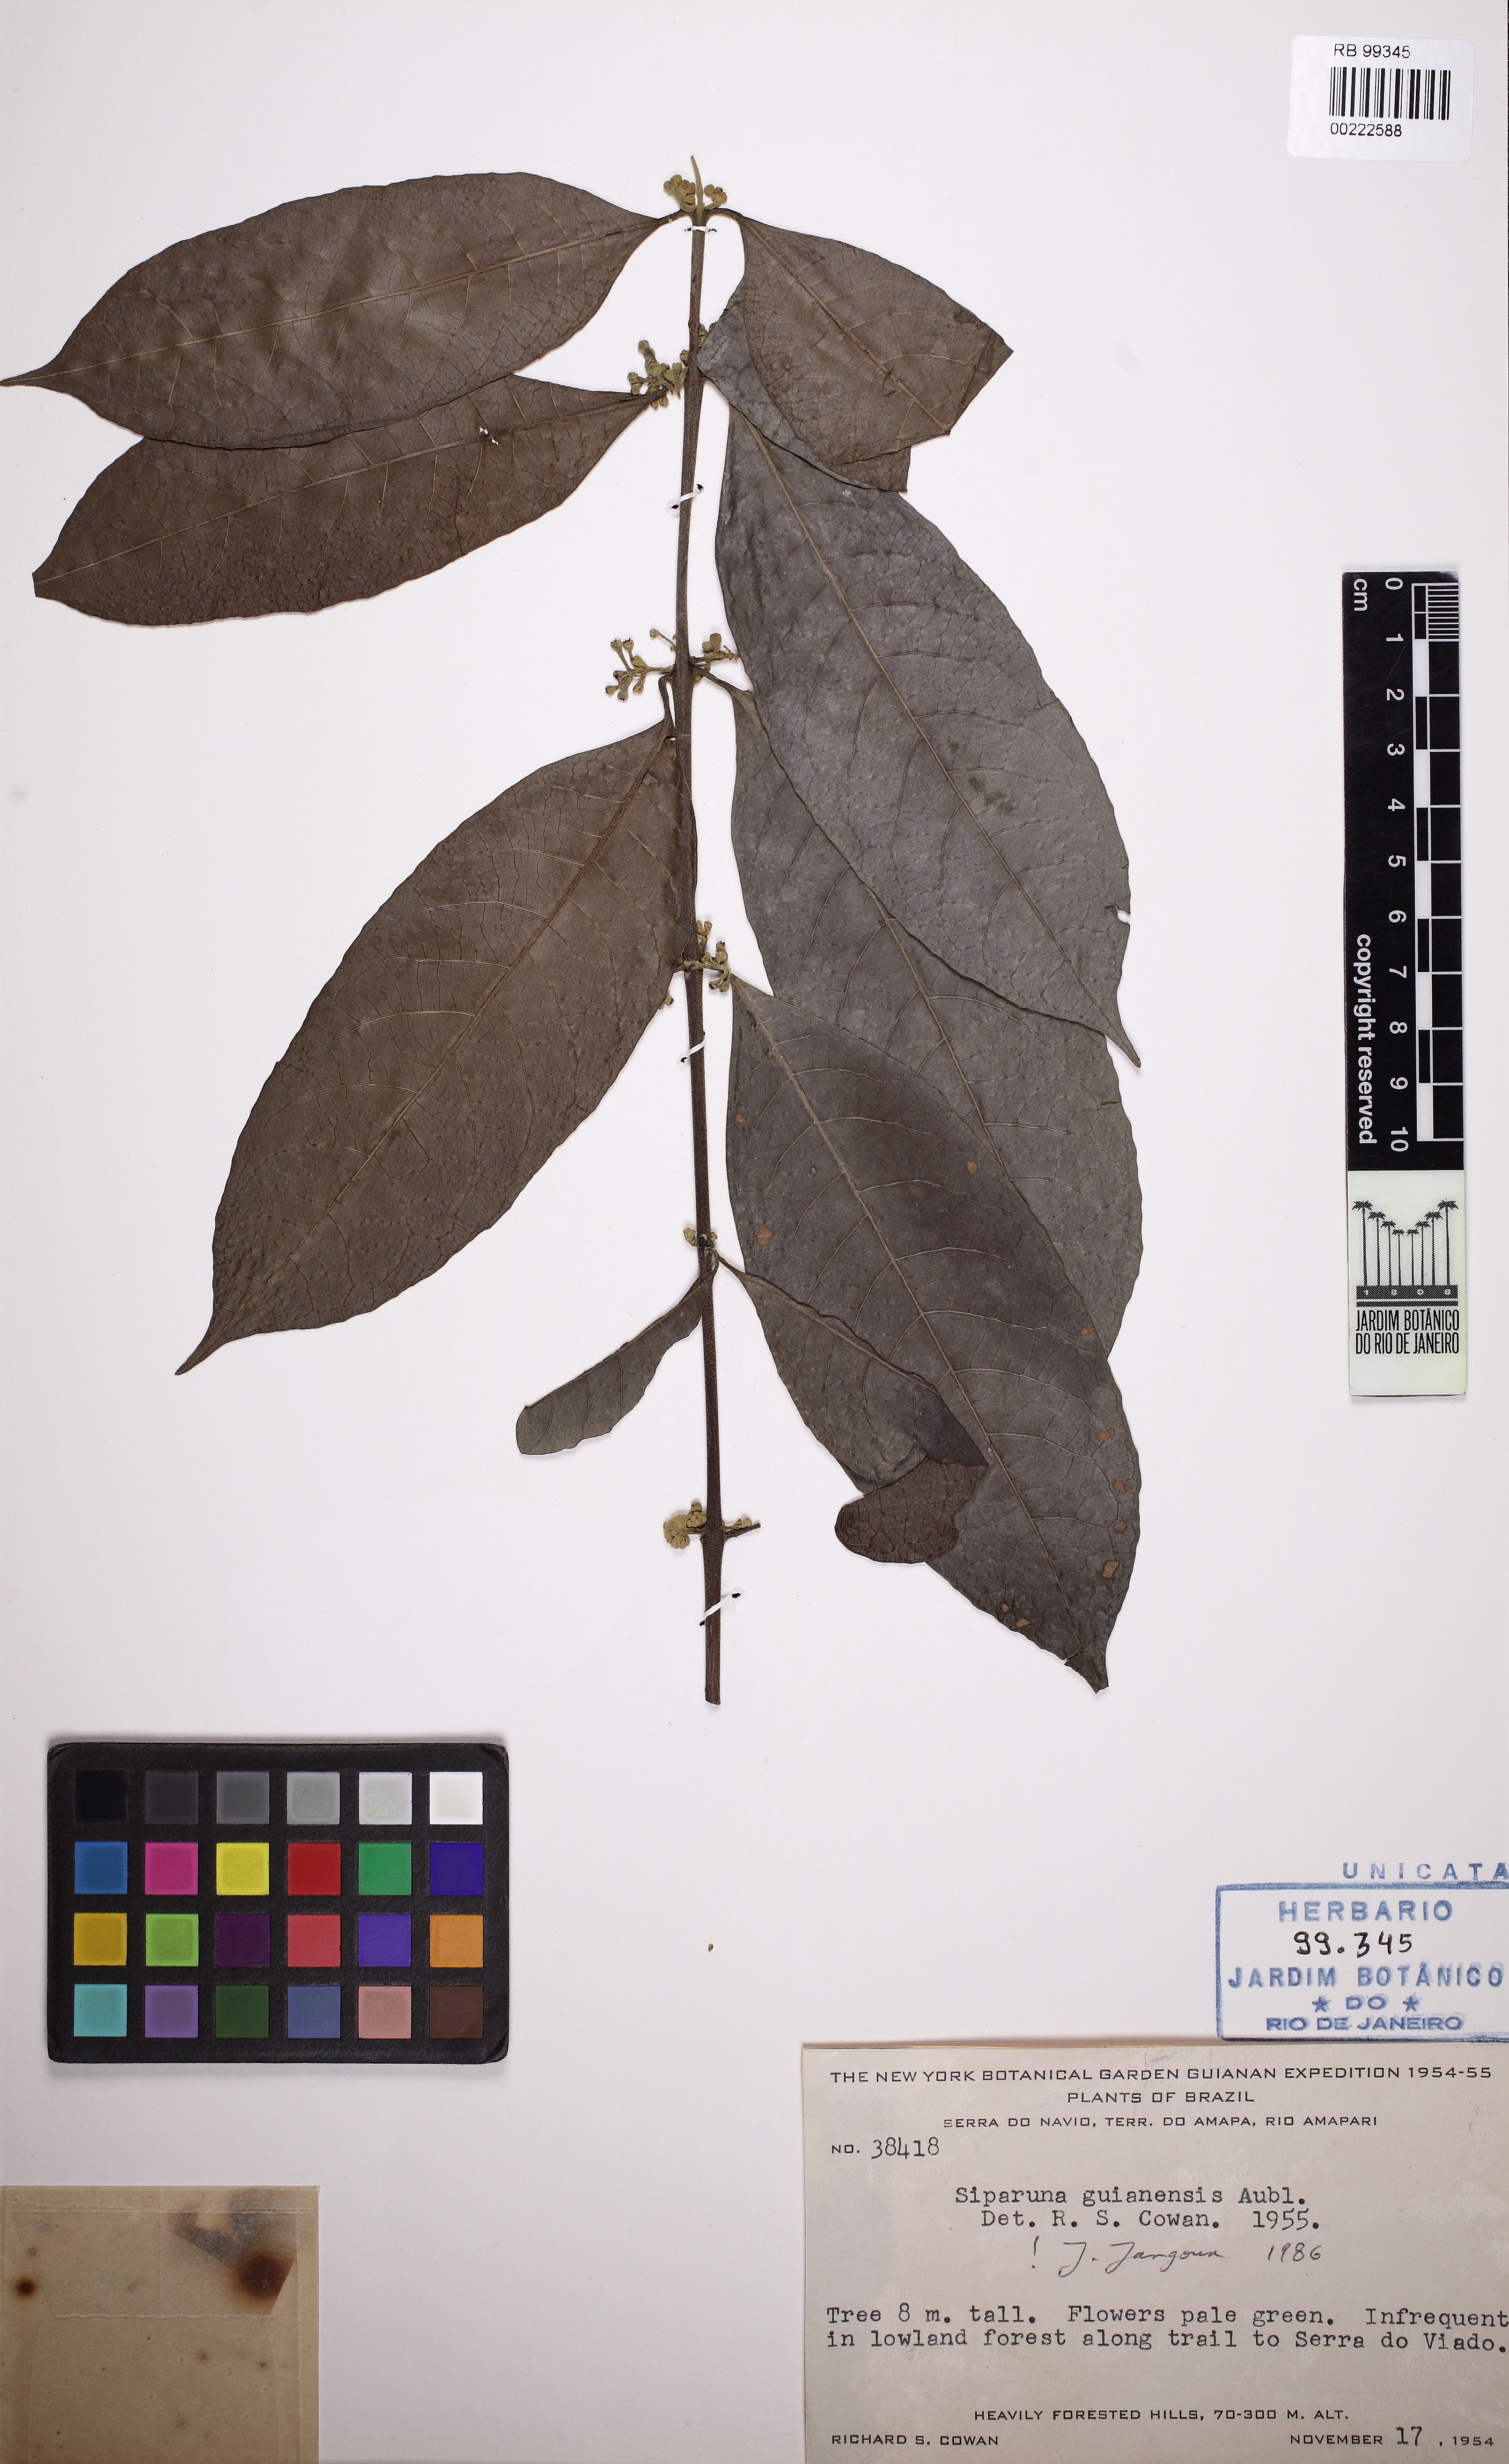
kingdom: Plantae
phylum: Tracheophyta
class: Magnoliopsida
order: Laurales
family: Siparunaceae
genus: Siparuna
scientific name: Siparuna guianensis
